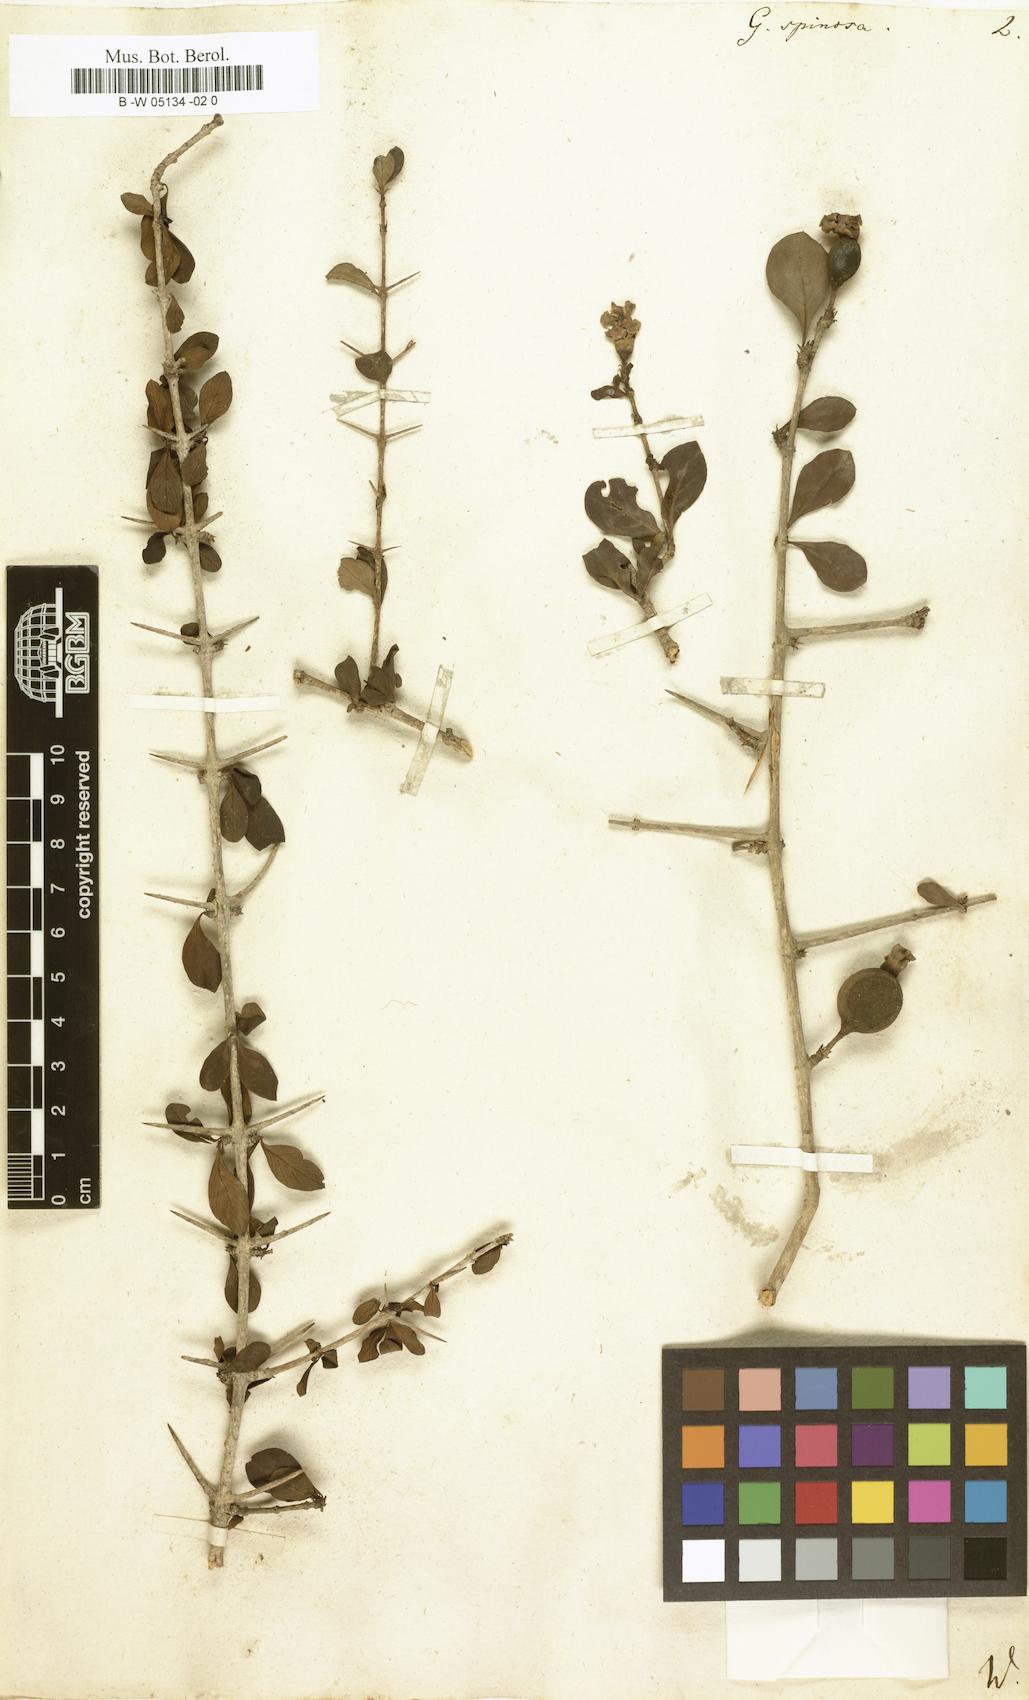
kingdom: Plantae
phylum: Tracheophyta
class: Magnoliopsida
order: Gentianales
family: Rubiaceae
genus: Catunaregam
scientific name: Catunaregam spinosa
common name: Emetic-nut
